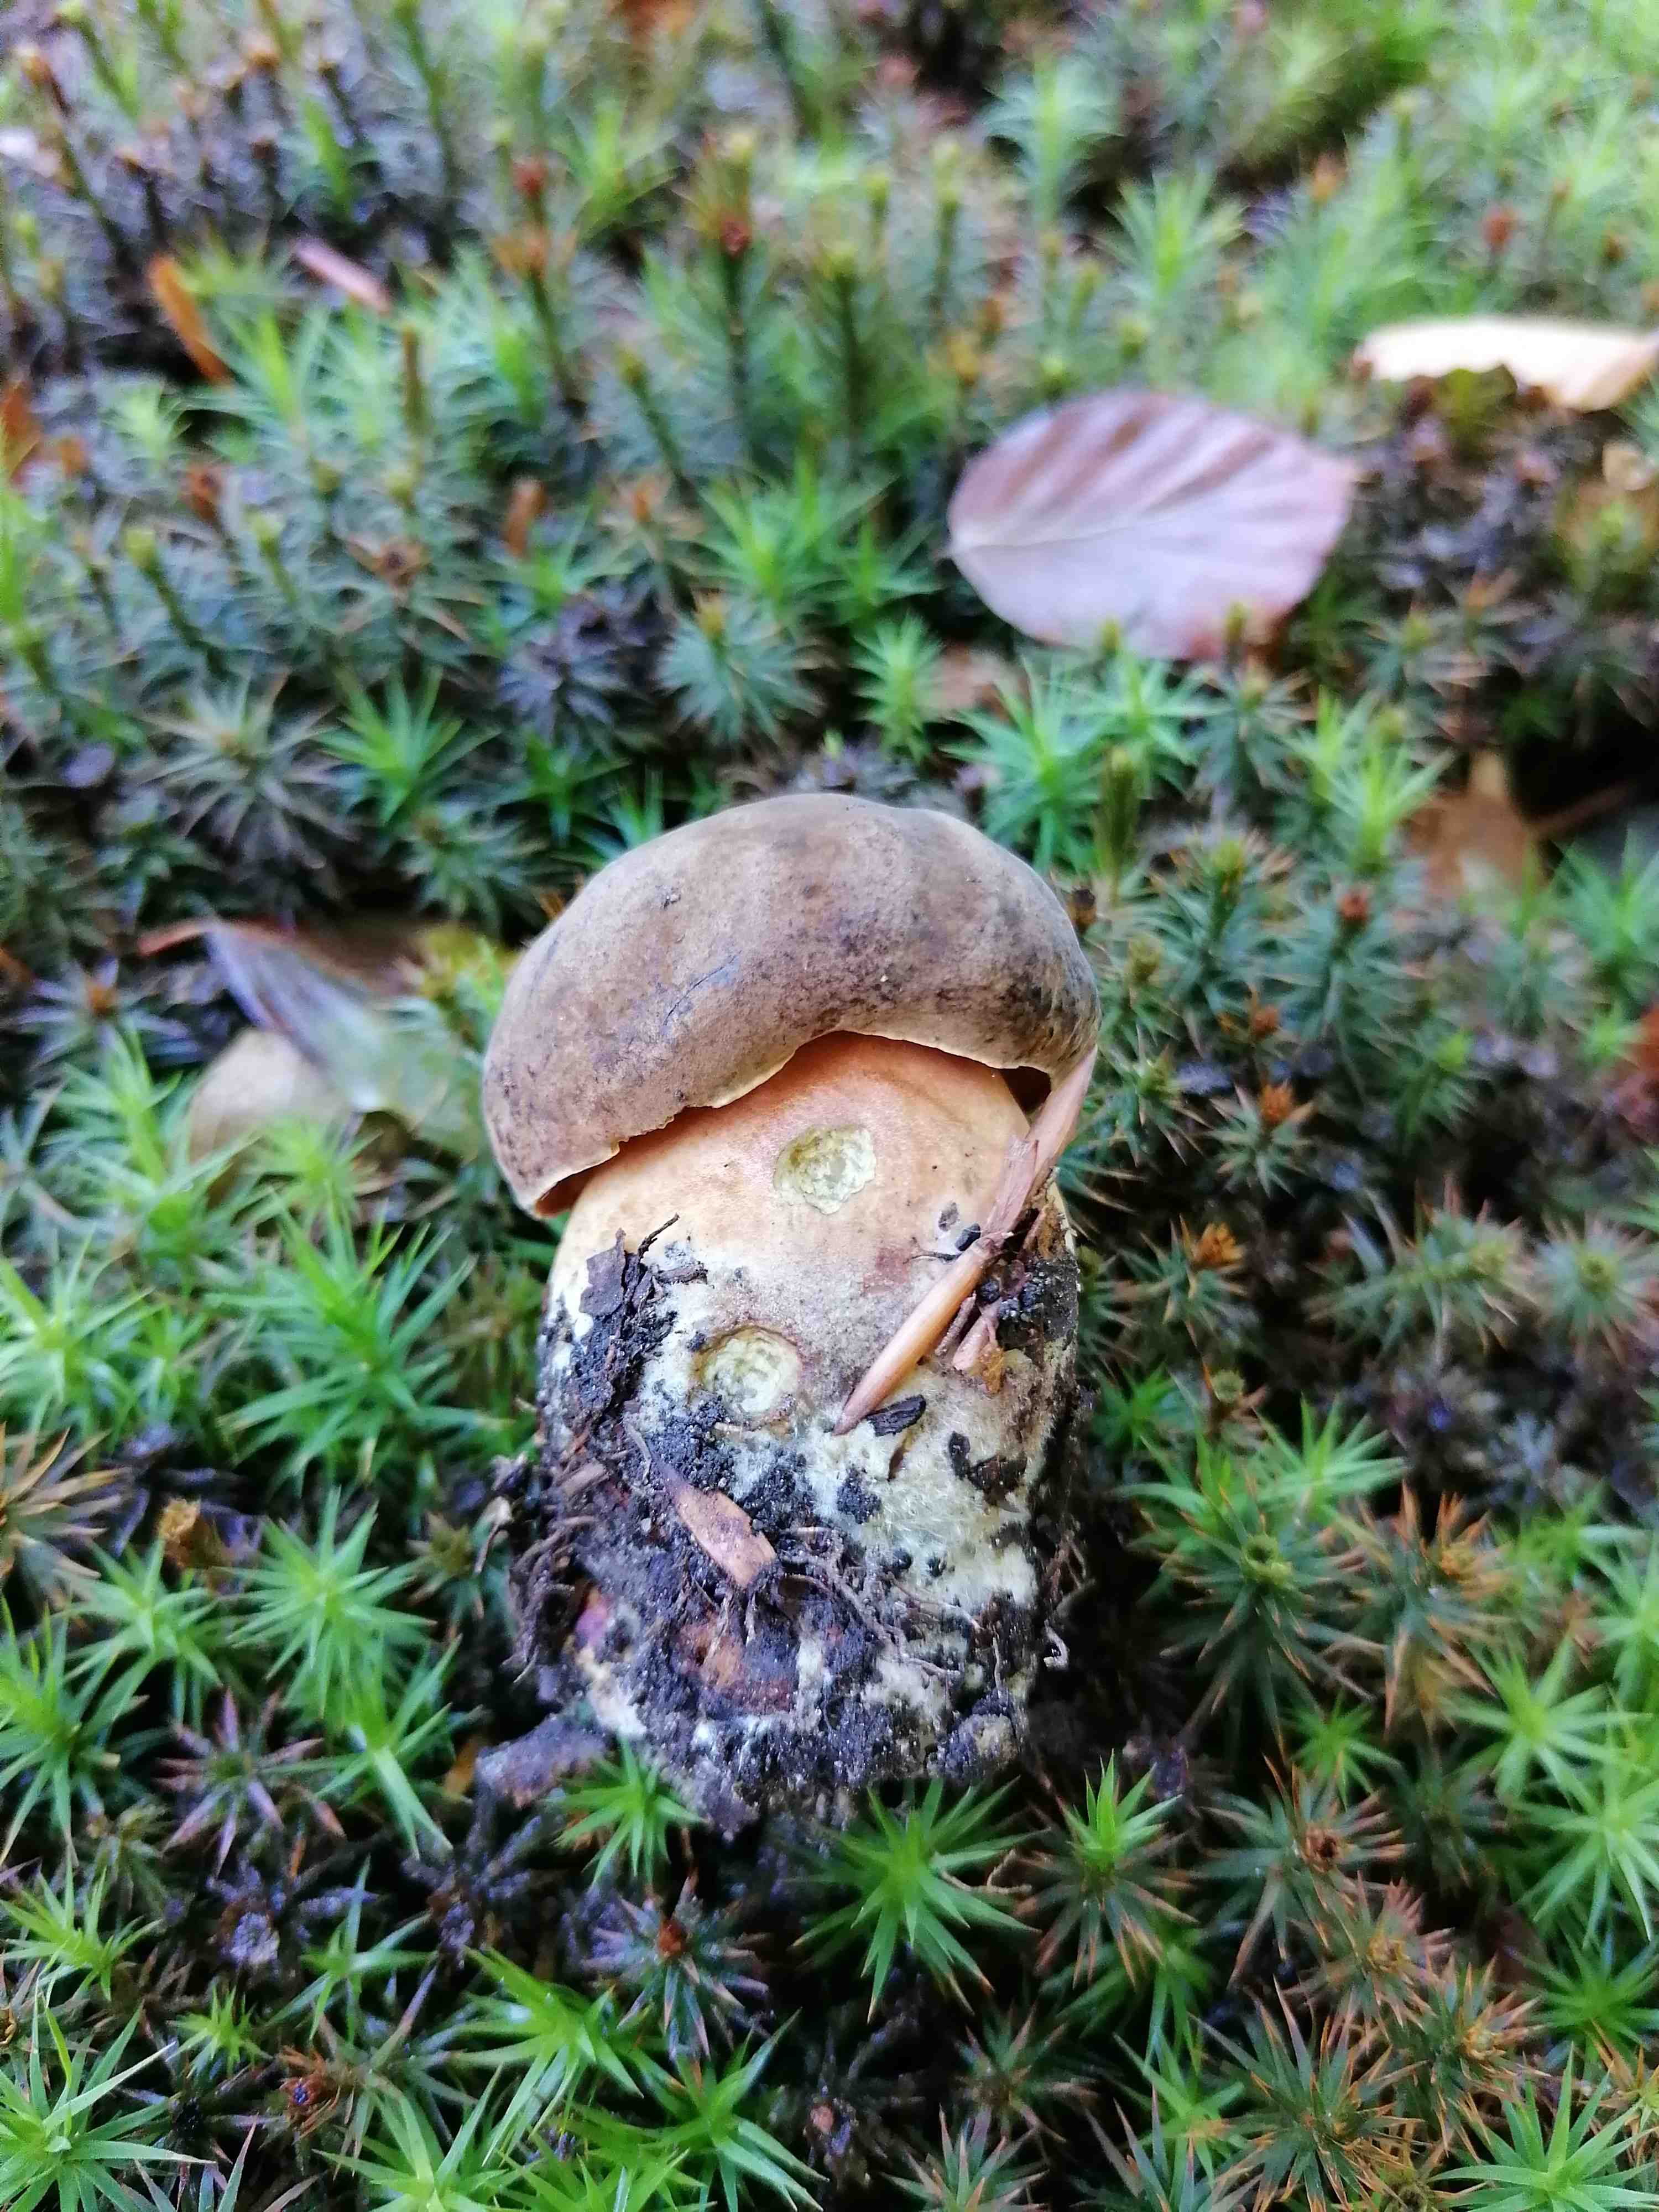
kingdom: Fungi
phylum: Basidiomycota
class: Agaricomycetes
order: Boletales
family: Boletaceae
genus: Neoboletus
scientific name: Neoboletus erythropus
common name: punktstokket indigorørhat
